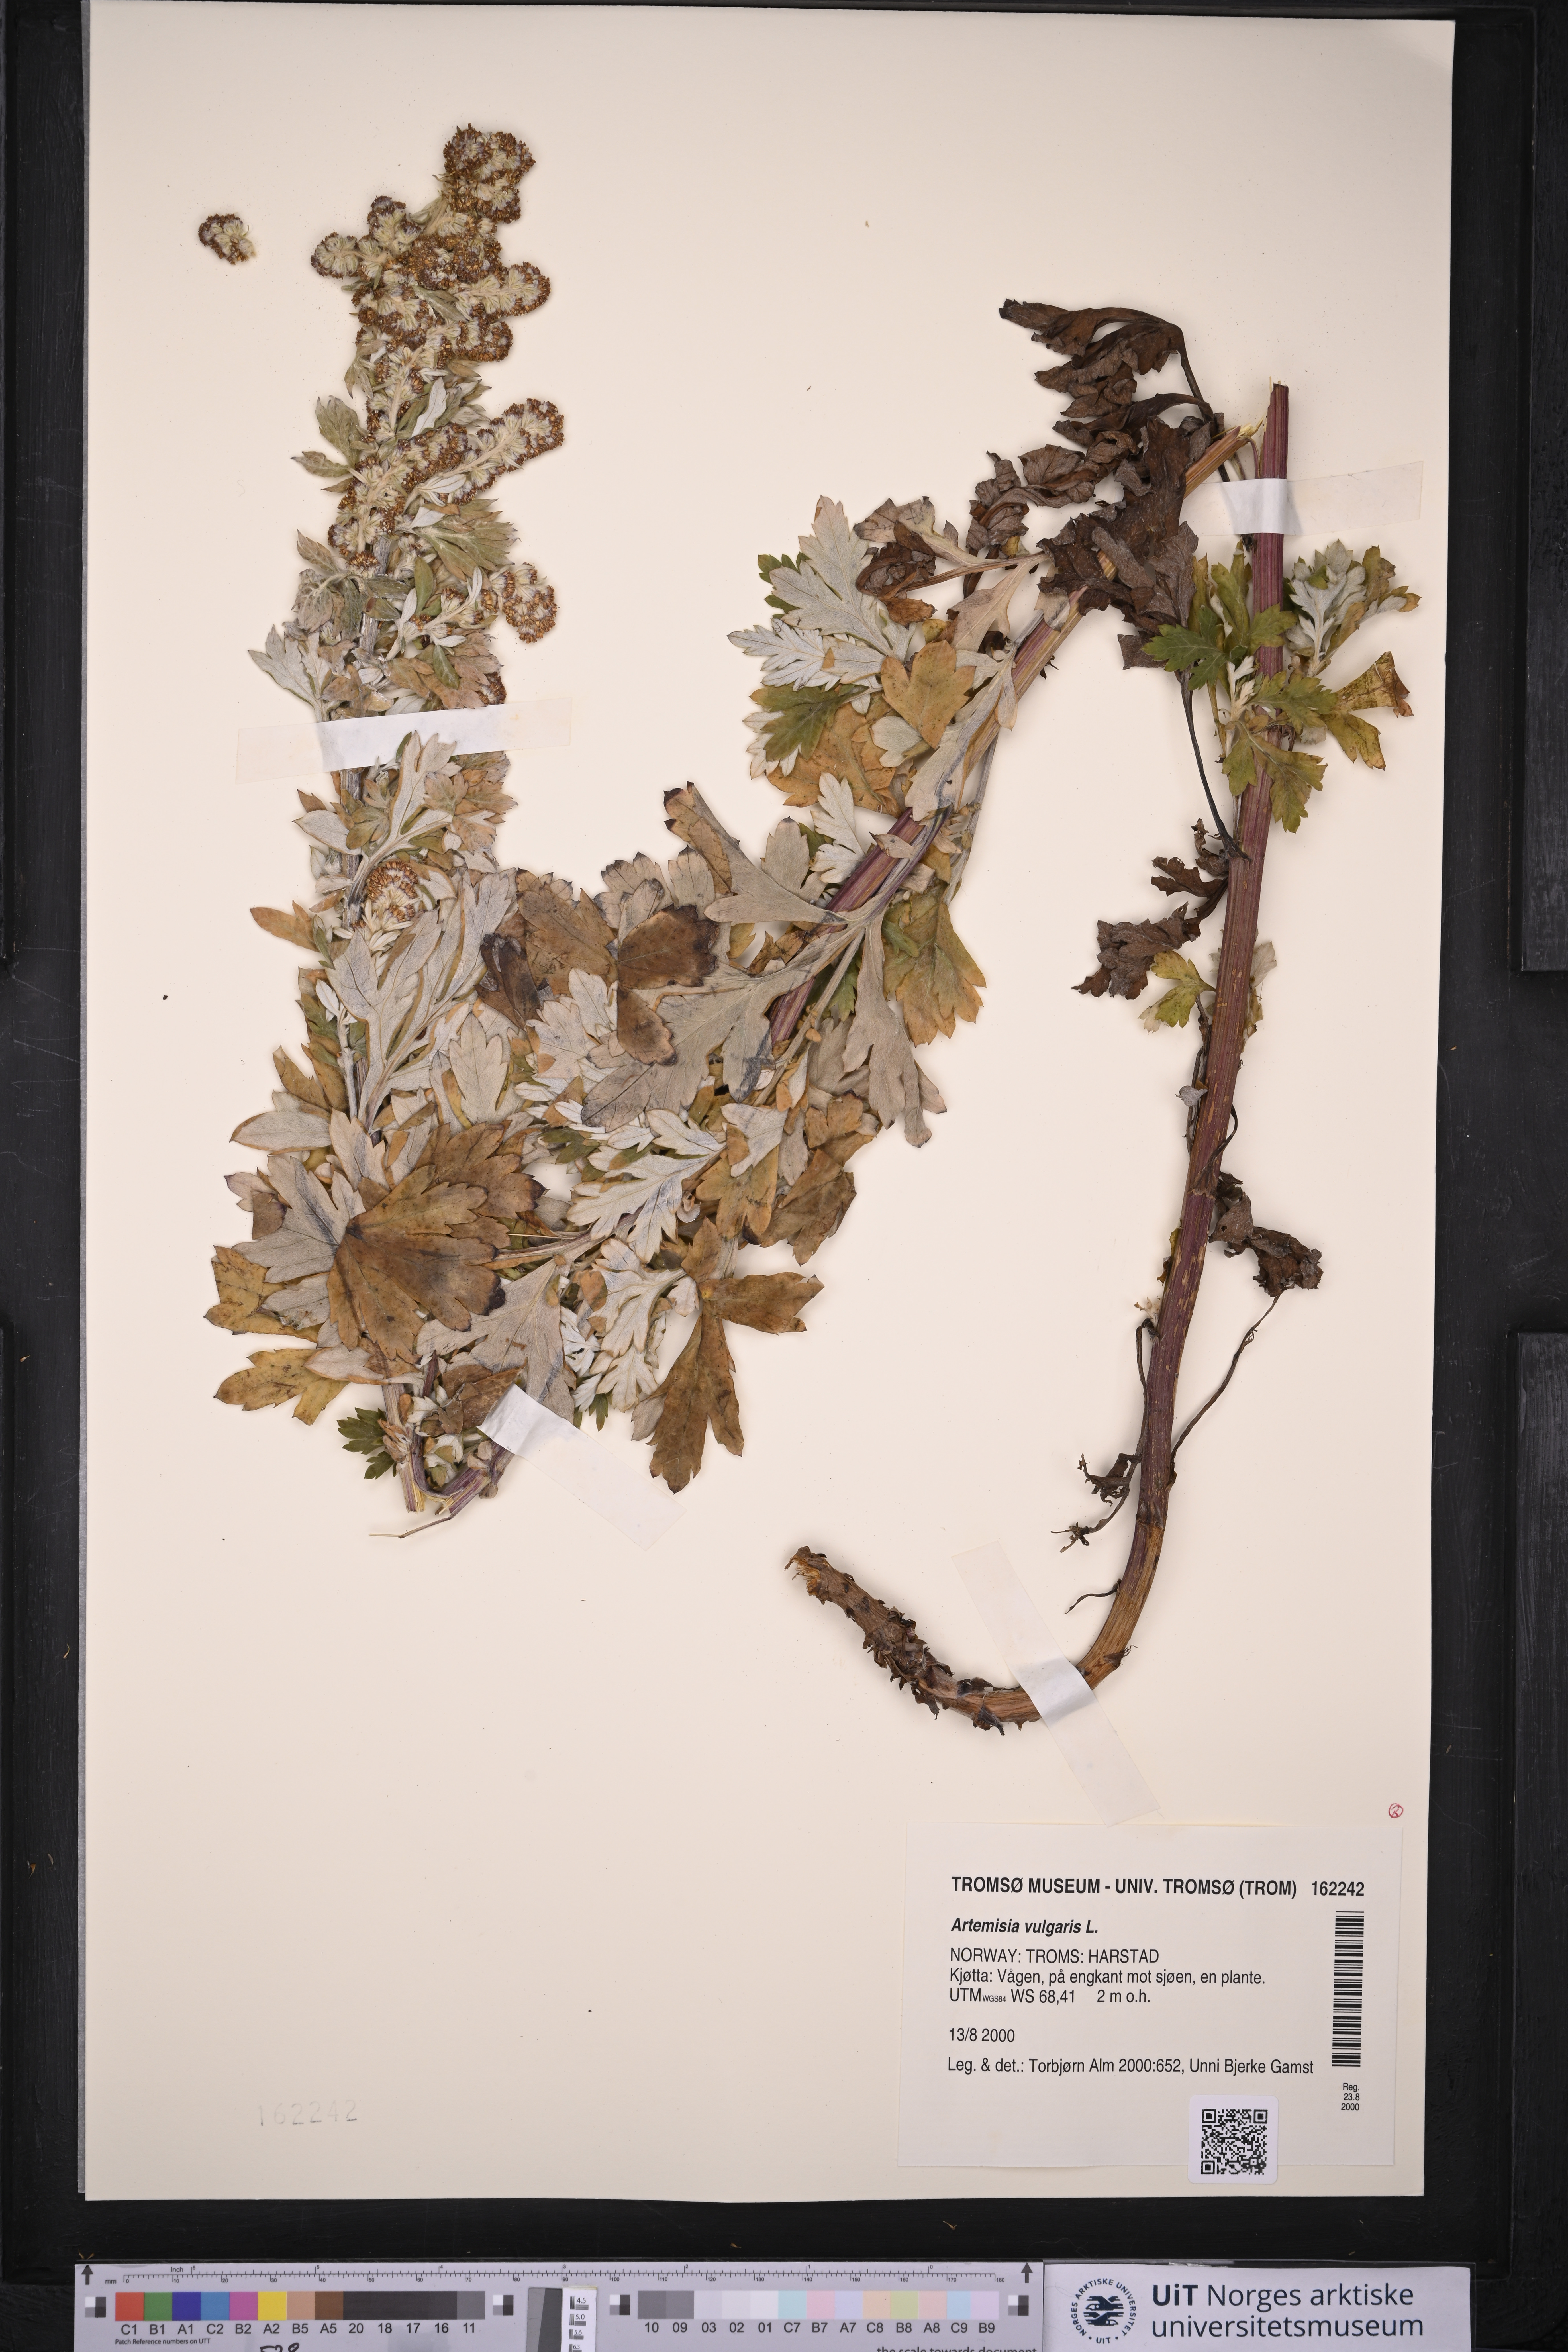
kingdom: Plantae
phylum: Tracheophyta
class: Magnoliopsida
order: Asterales
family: Asteraceae
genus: Artemisia
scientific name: Artemisia vulgaris
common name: Mugwort
